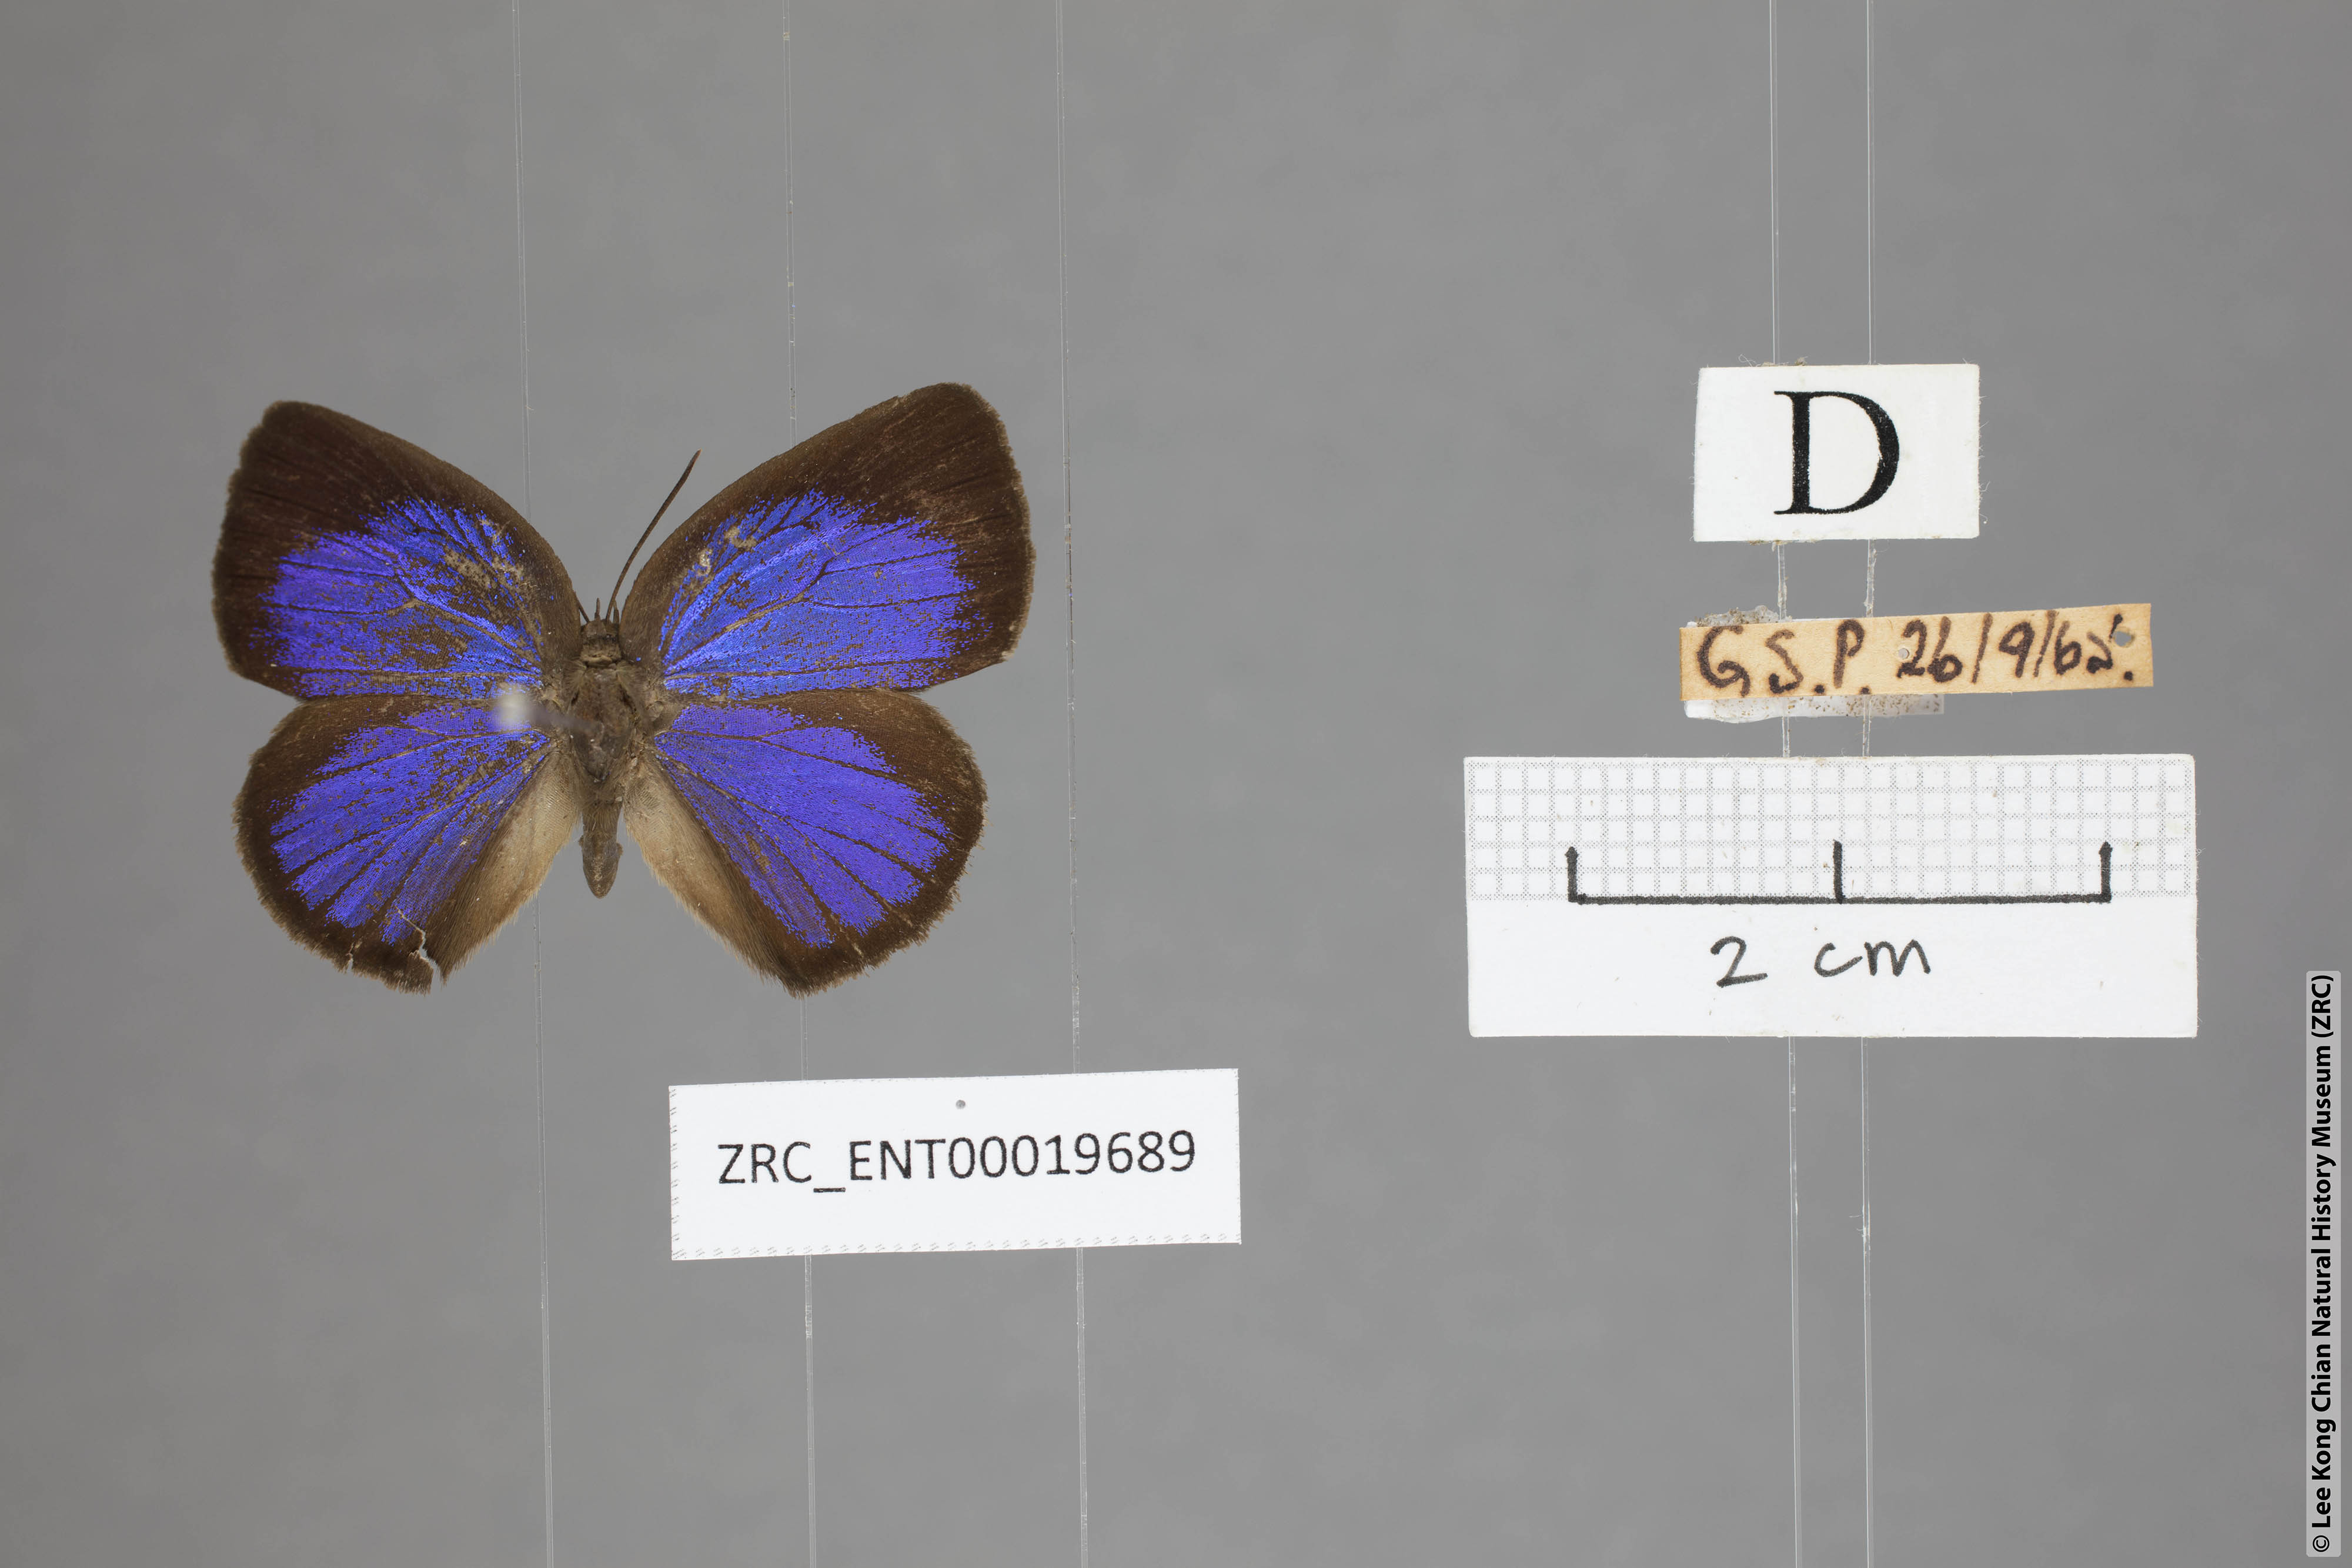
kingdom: Animalia
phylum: Arthropoda
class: Insecta
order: Lepidoptera
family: Lycaenidae
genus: Arhopala
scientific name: Arhopala moorei
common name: Moore's oakblue
